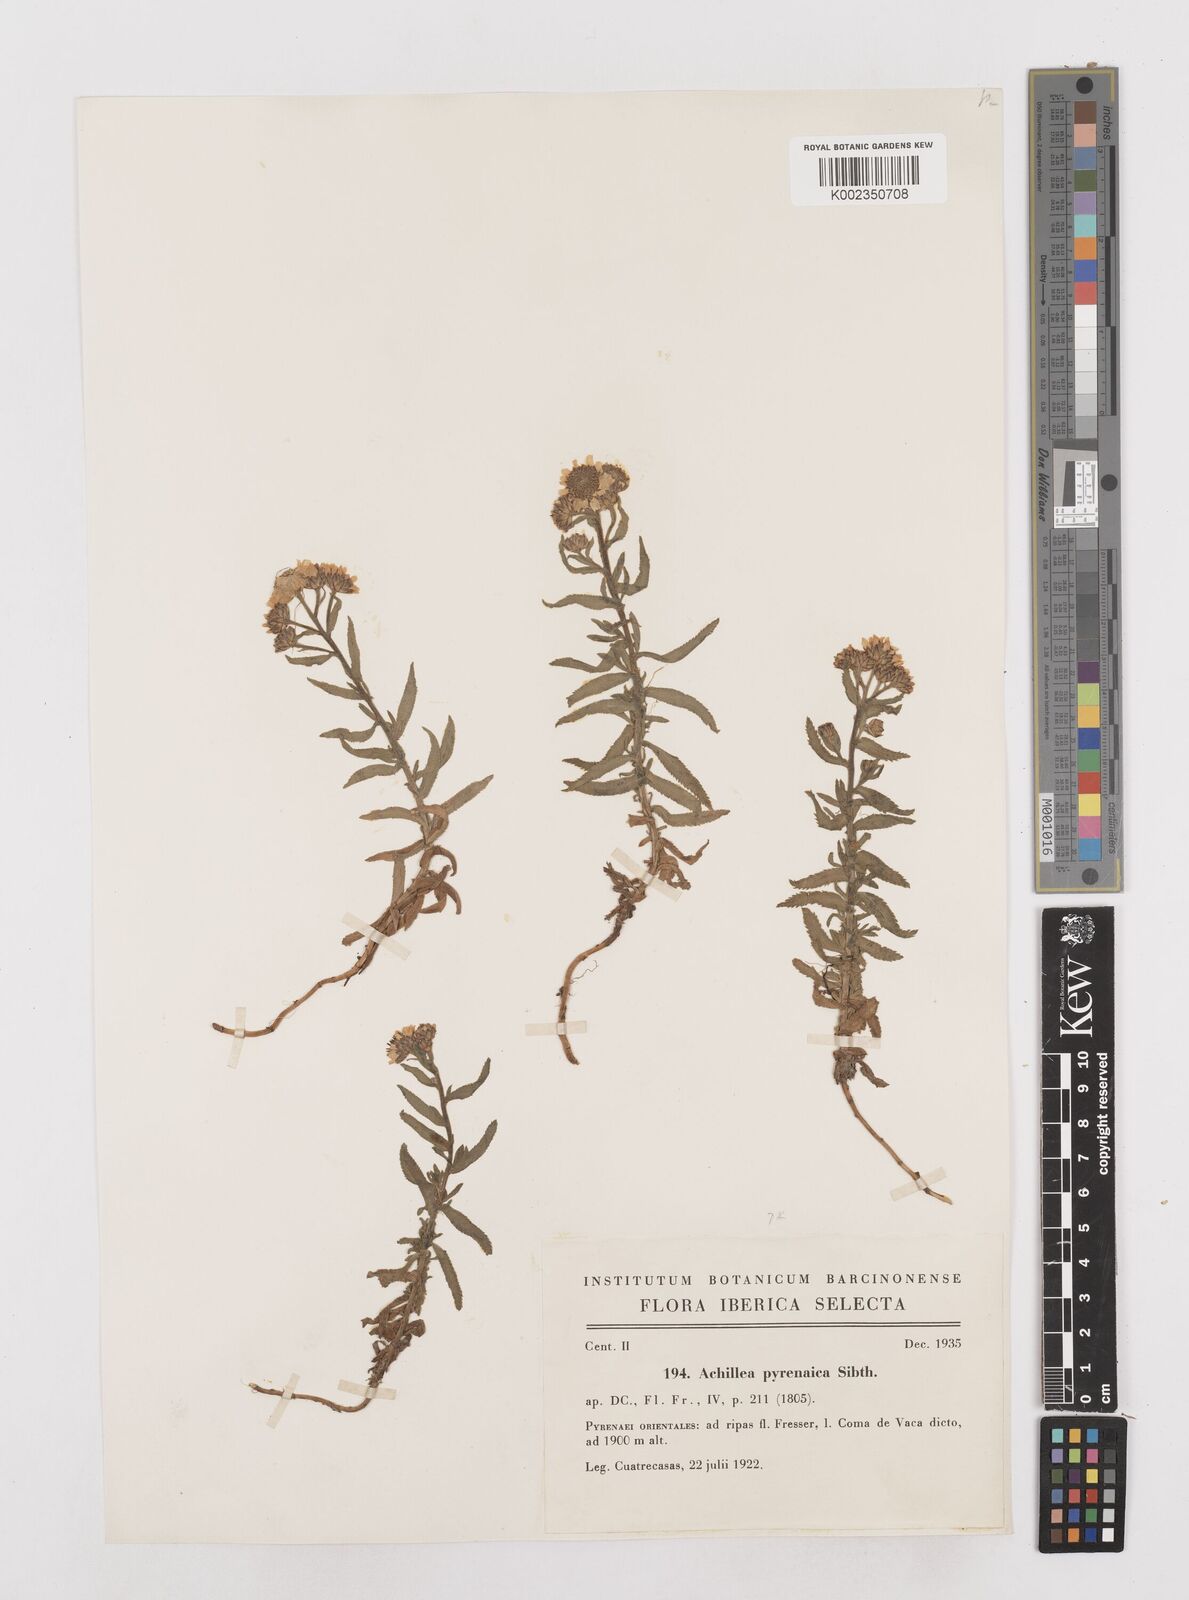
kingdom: Plantae
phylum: Tracheophyta
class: Magnoliopsida
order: Asterales
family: Asteraceae
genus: Achillea
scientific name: Achillea pyrenaica
